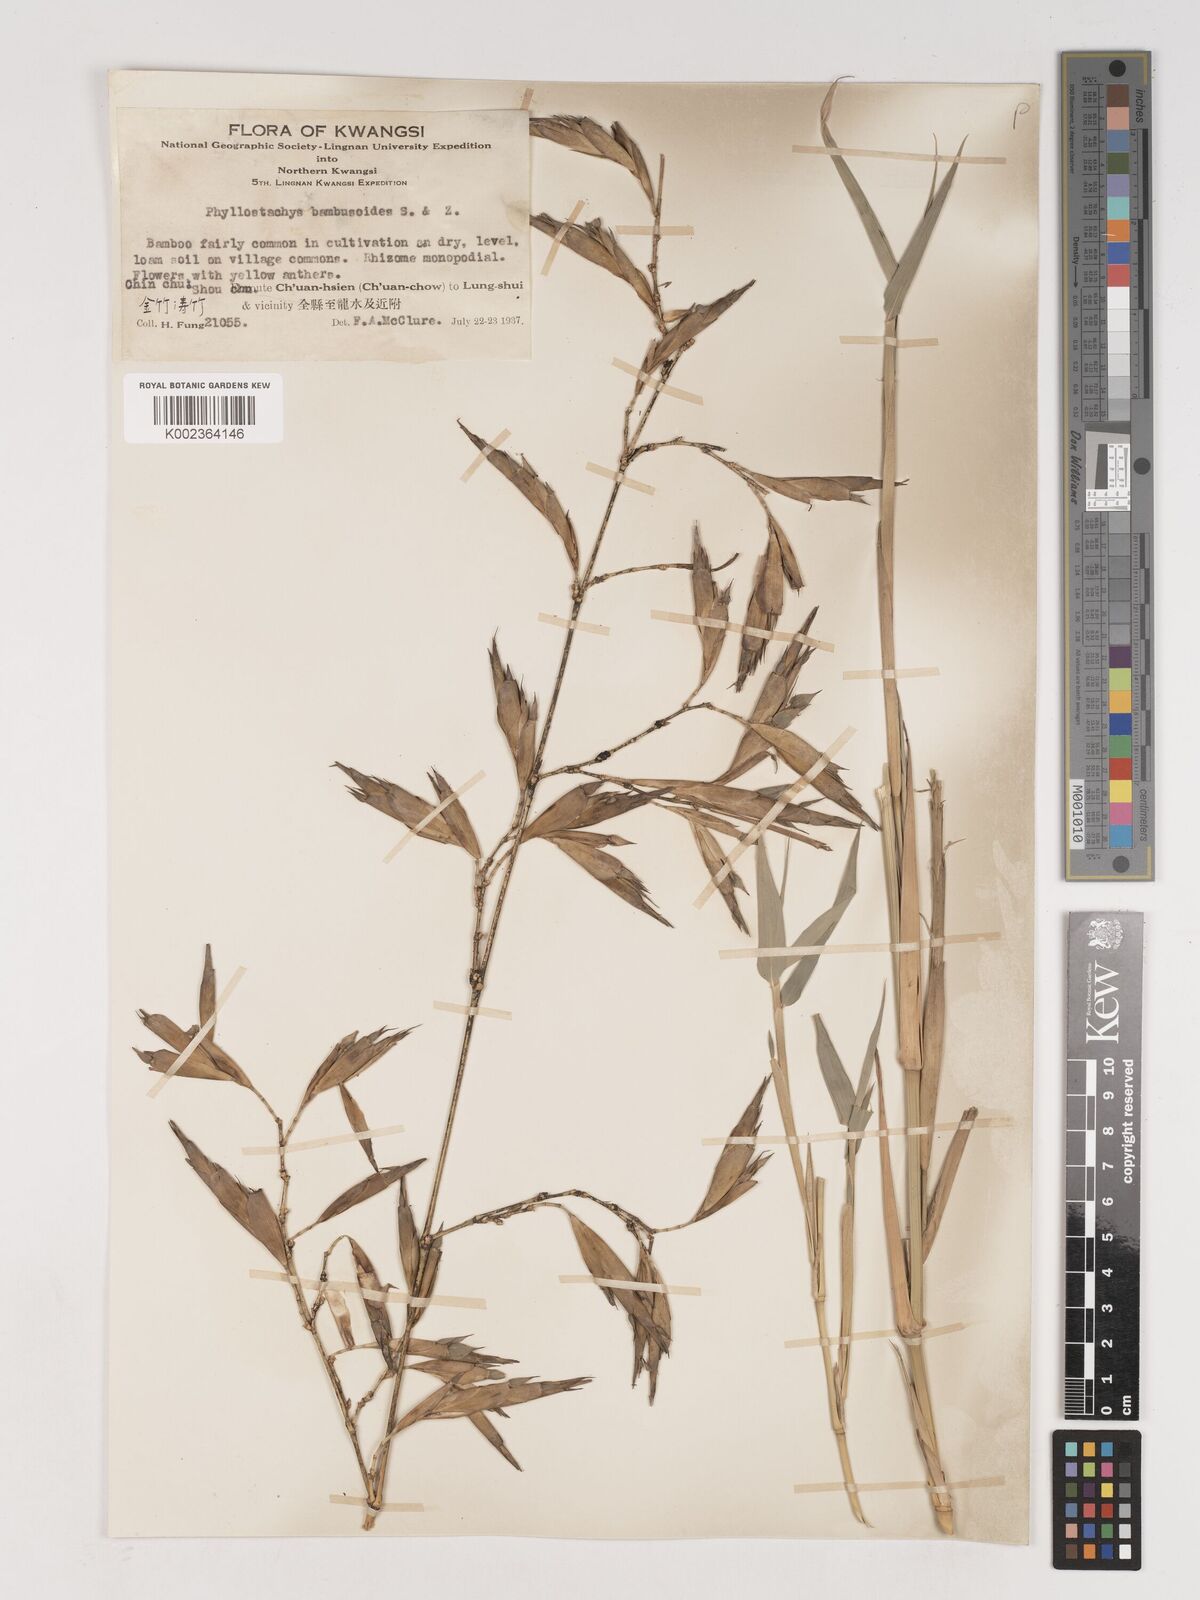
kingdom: Plantae
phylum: Tracheophyta
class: Liliopsida
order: Poales
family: Poaceae
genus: Phyllostachys
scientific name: Phyllostachys reticulata
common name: Bamboo
